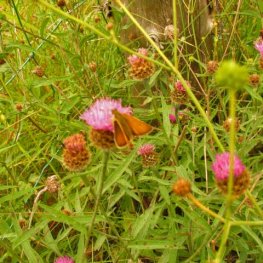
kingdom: Animalia
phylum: Arthropoda
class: Insecta
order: Lepidoptera
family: Hesperiidae
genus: Thymelicus
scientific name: Thymelicus lineola
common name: European Skipper
